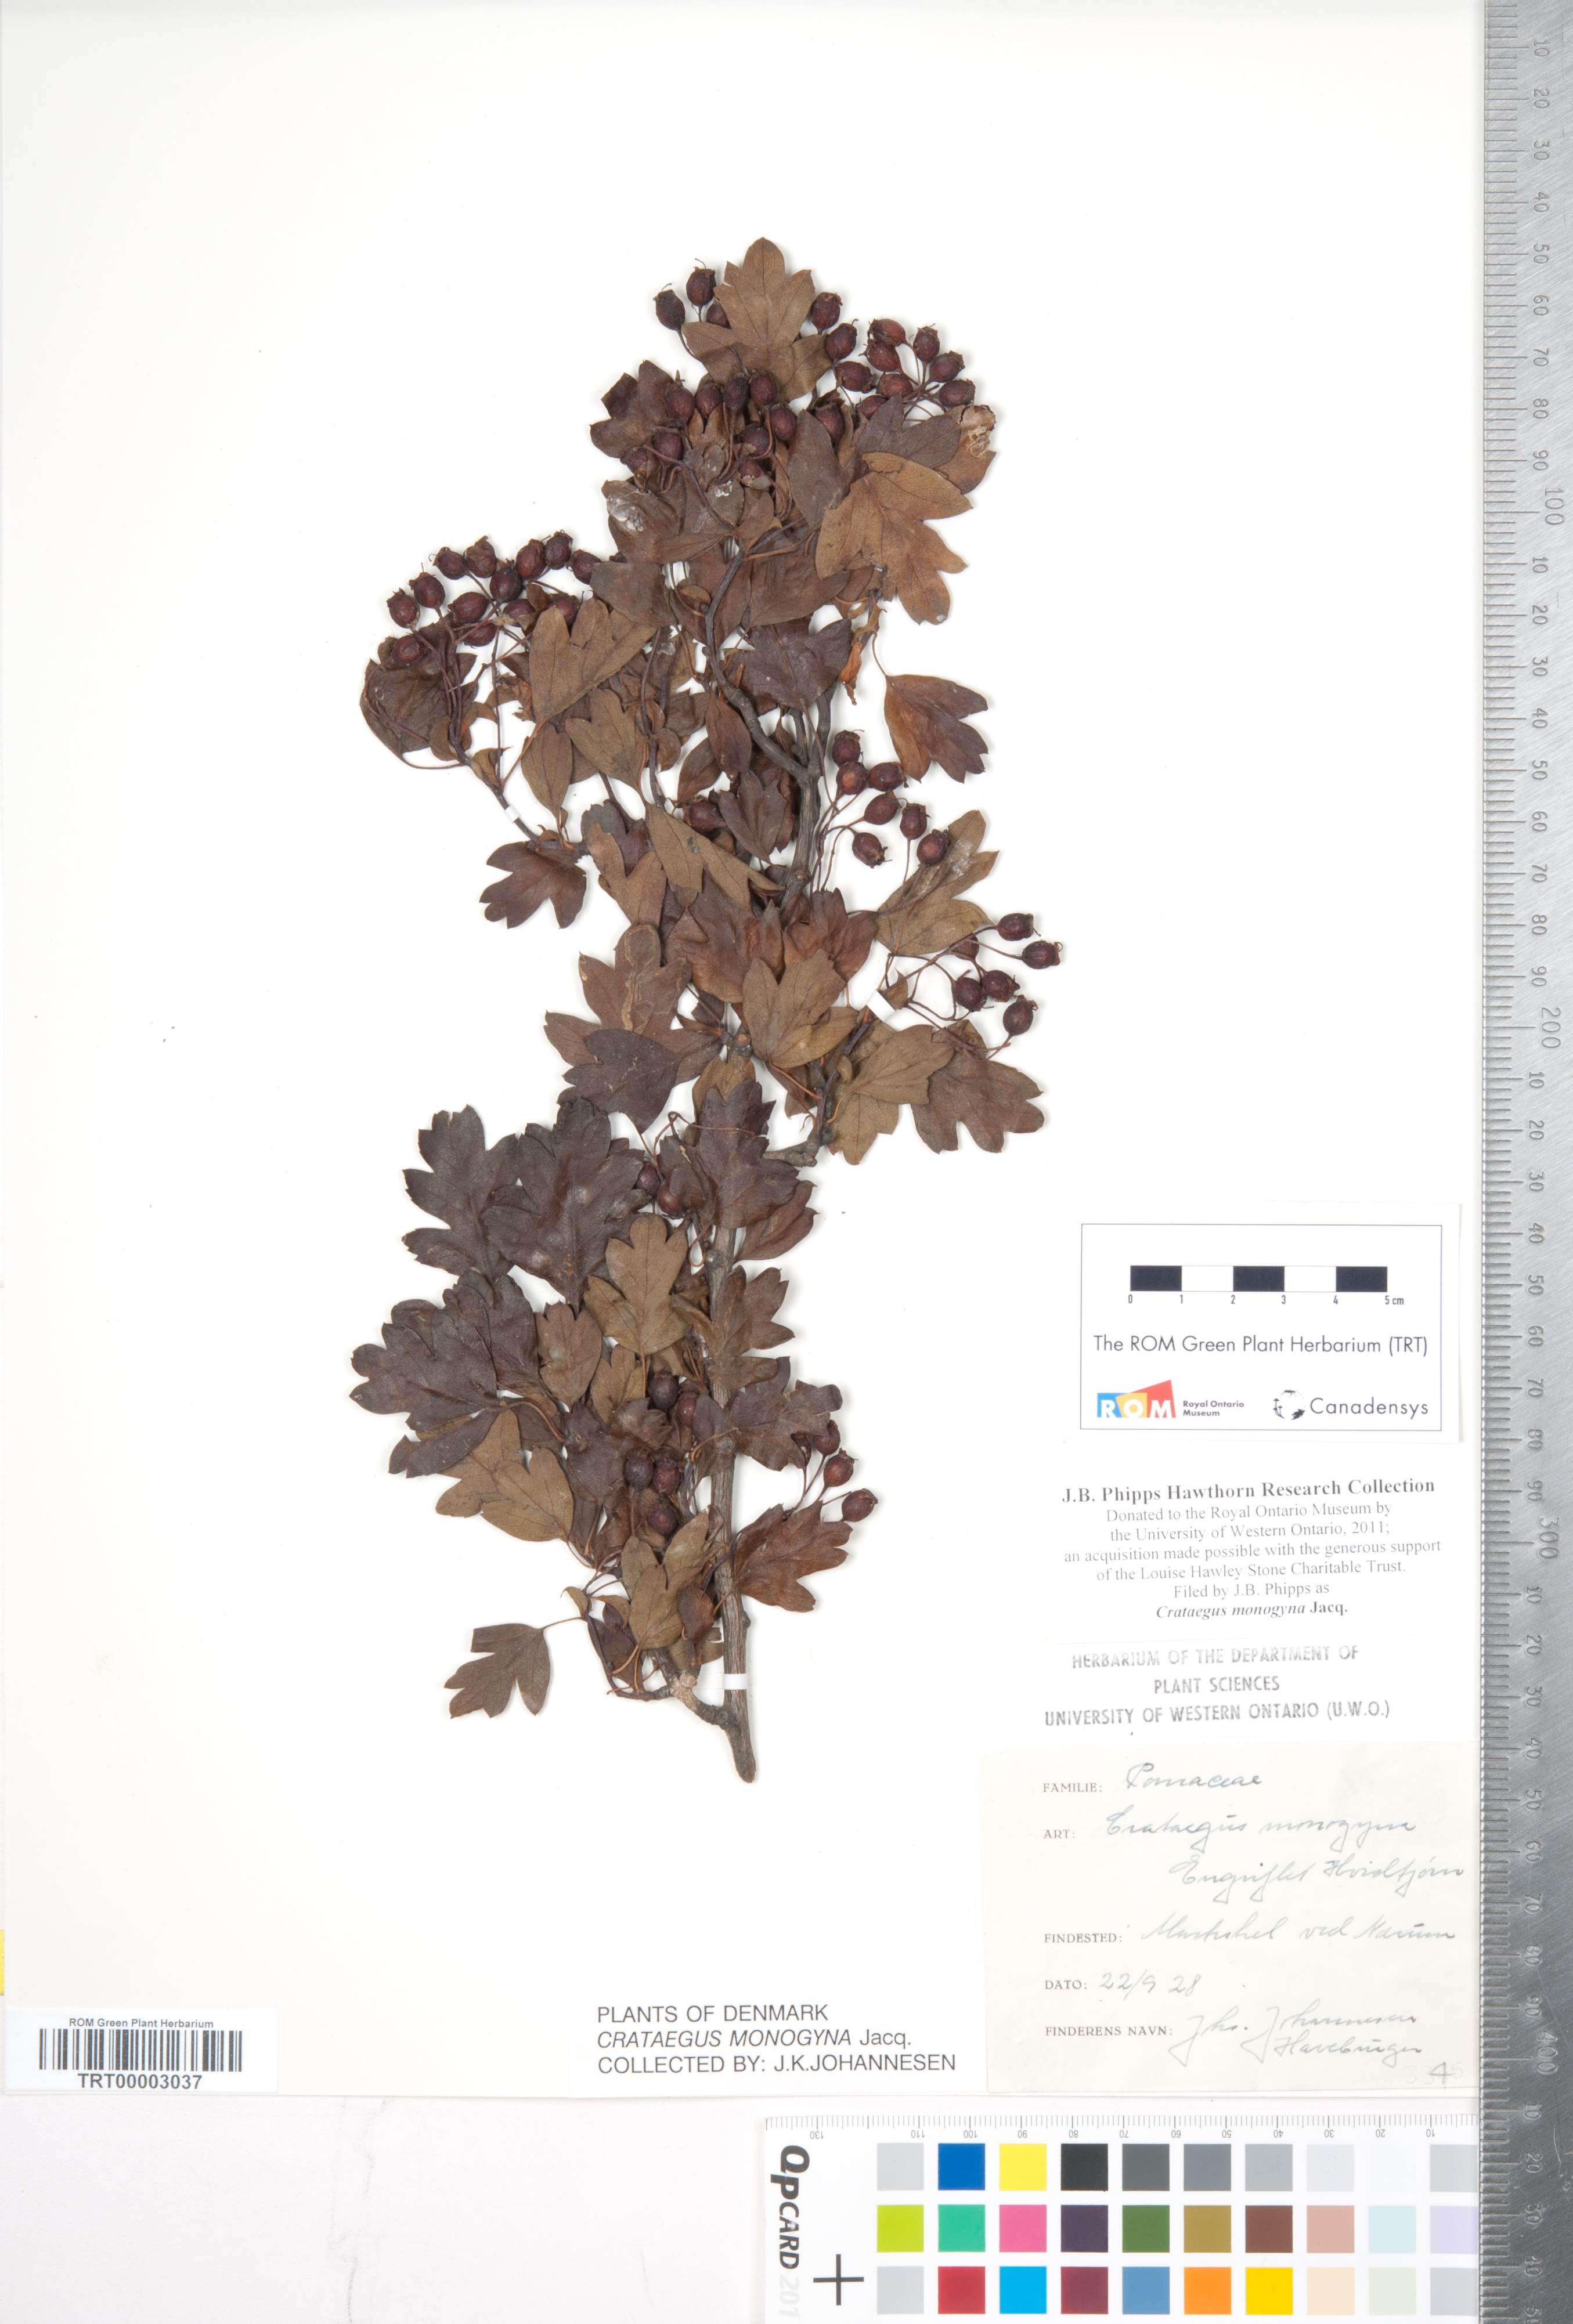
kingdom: Plantae
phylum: Tracheophyta
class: Magnoliopsida
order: Rosales
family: Rosaceae
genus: Crataegus
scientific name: Crataegus monogyna
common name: Hawthorn
